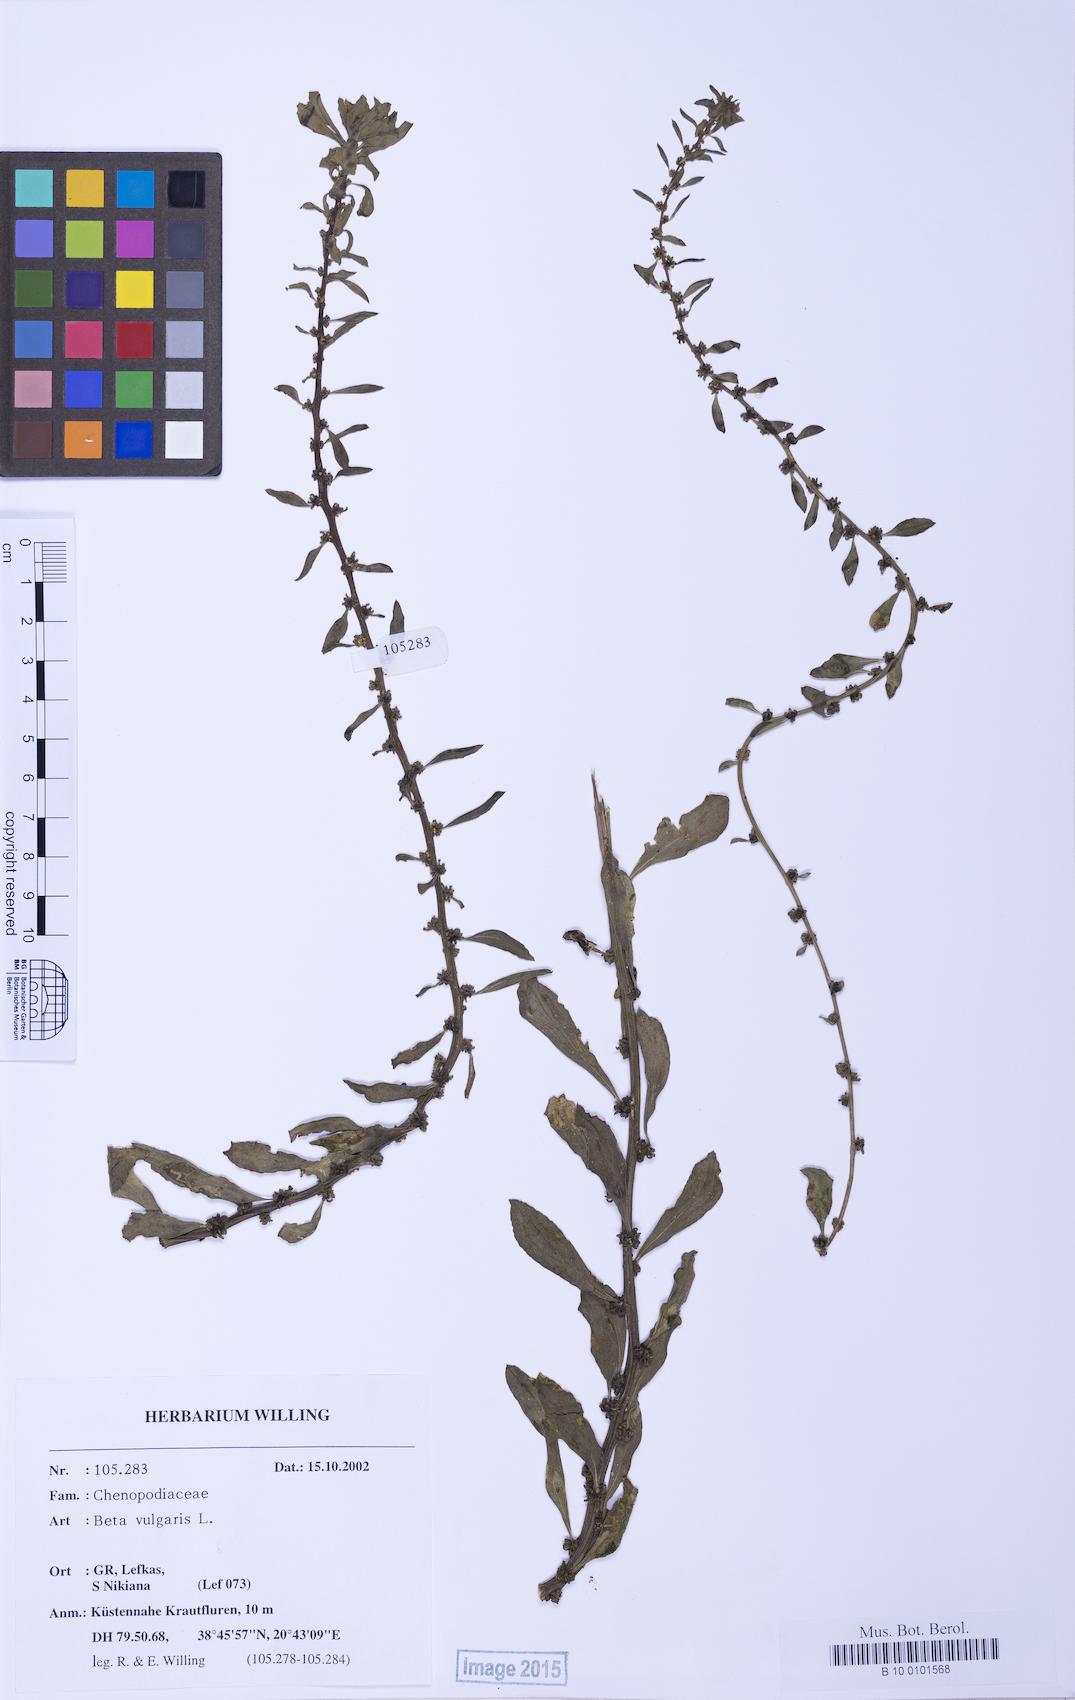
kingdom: Plantae
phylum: Tracheophyta
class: Magnoliopsida
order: Caryophyllales
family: Amaranthaceae
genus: Beta
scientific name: Beta macrocarpa
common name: Beet
